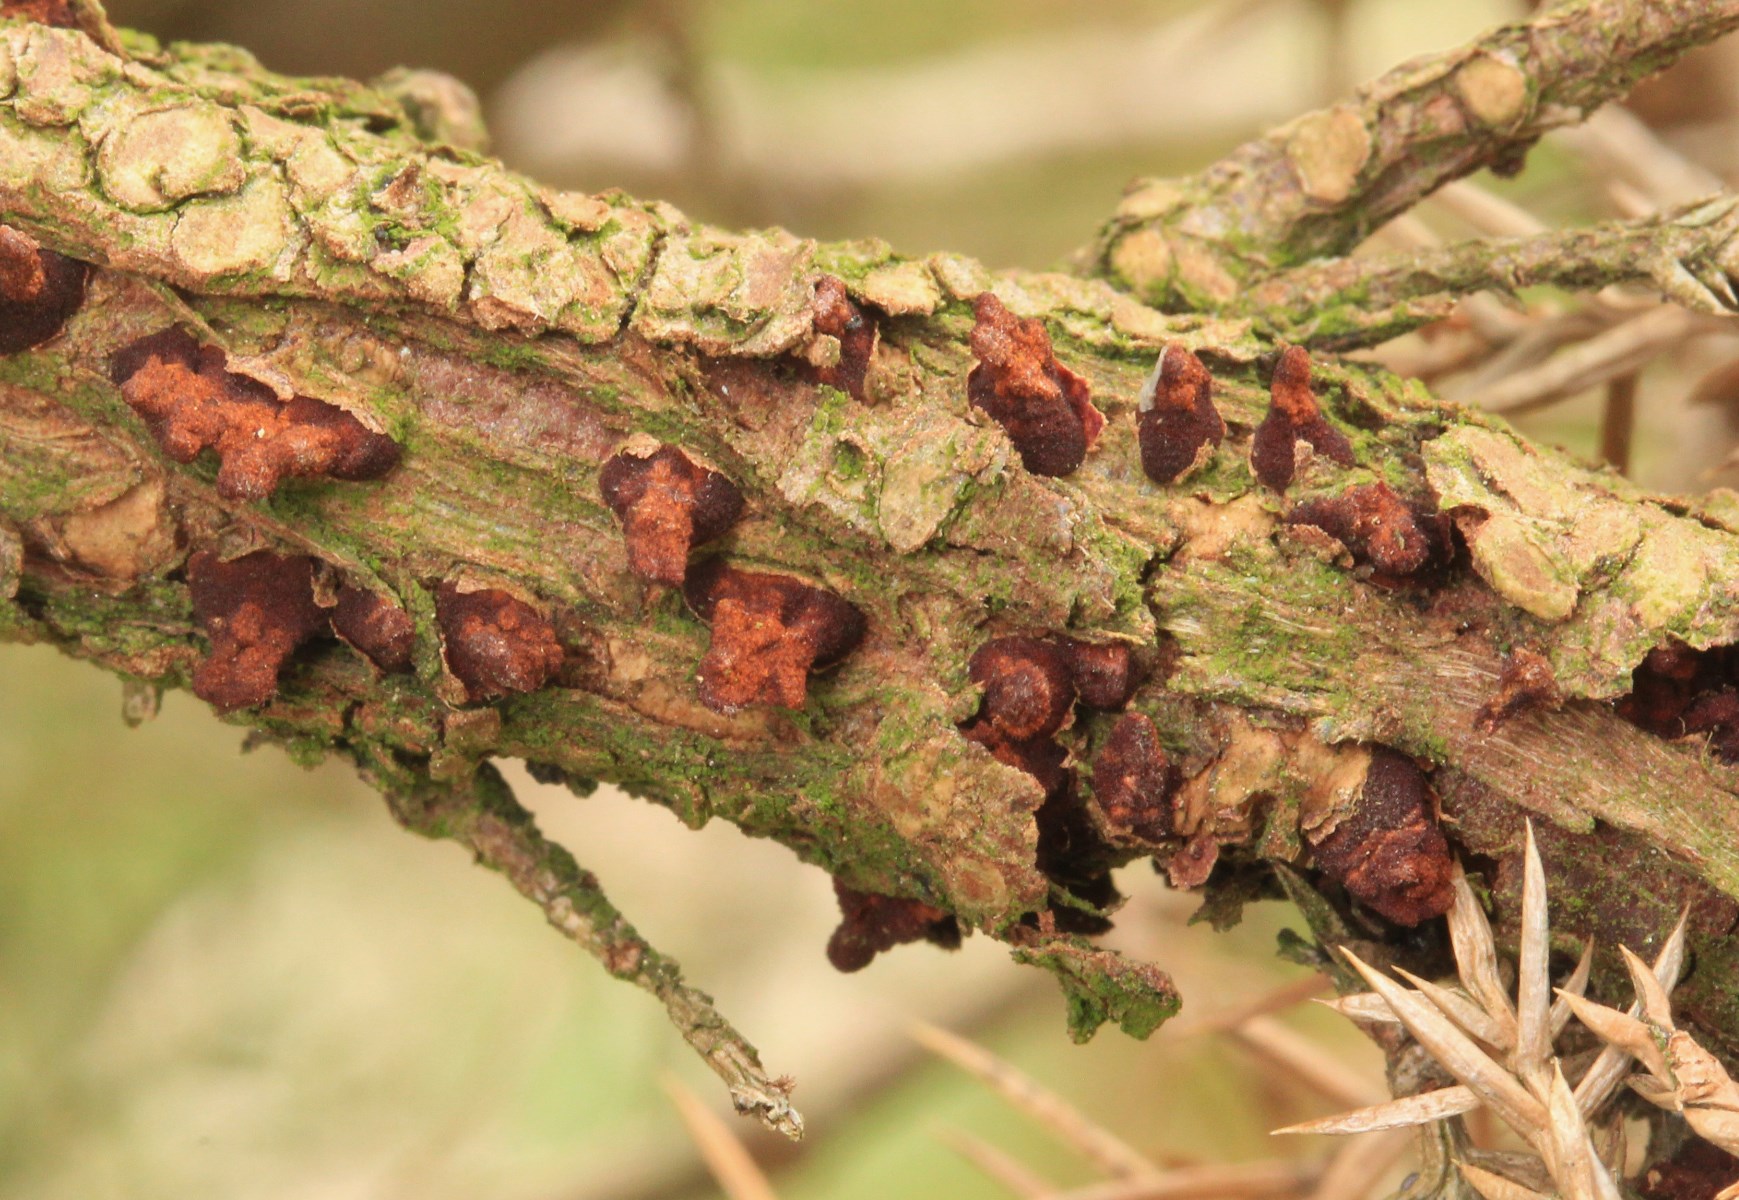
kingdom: Fungi
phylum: Basidiomycota
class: Pucciniomycetes
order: Pucciniales
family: Gymnosporangiaceae
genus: Gymnosporangium
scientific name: Gymnosporangium sabinae
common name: pæregitter-bævrerust
